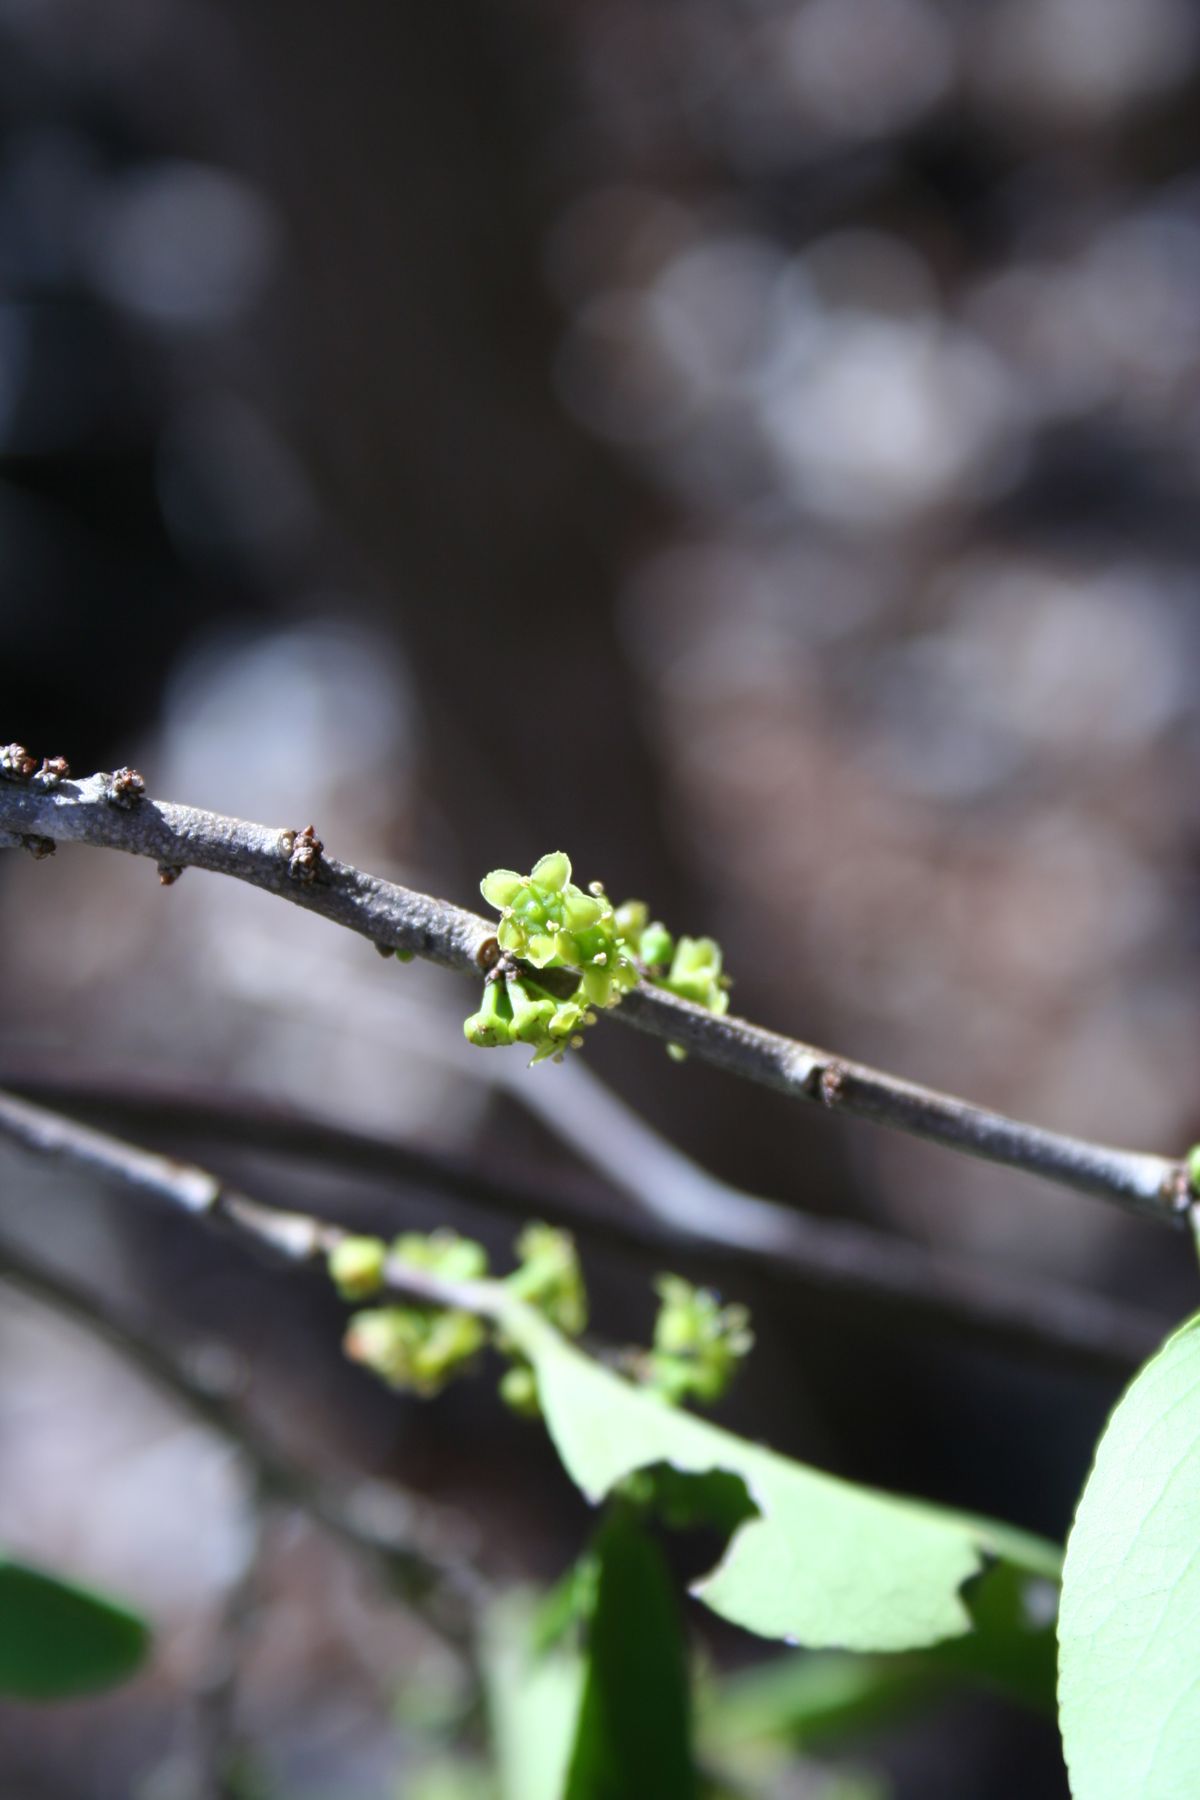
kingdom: Plantae
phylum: Tracheophyta
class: Magnoliopsida
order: Celastrales
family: Celastraceae
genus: Monteverdia
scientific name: Monteverdia segoviarum
